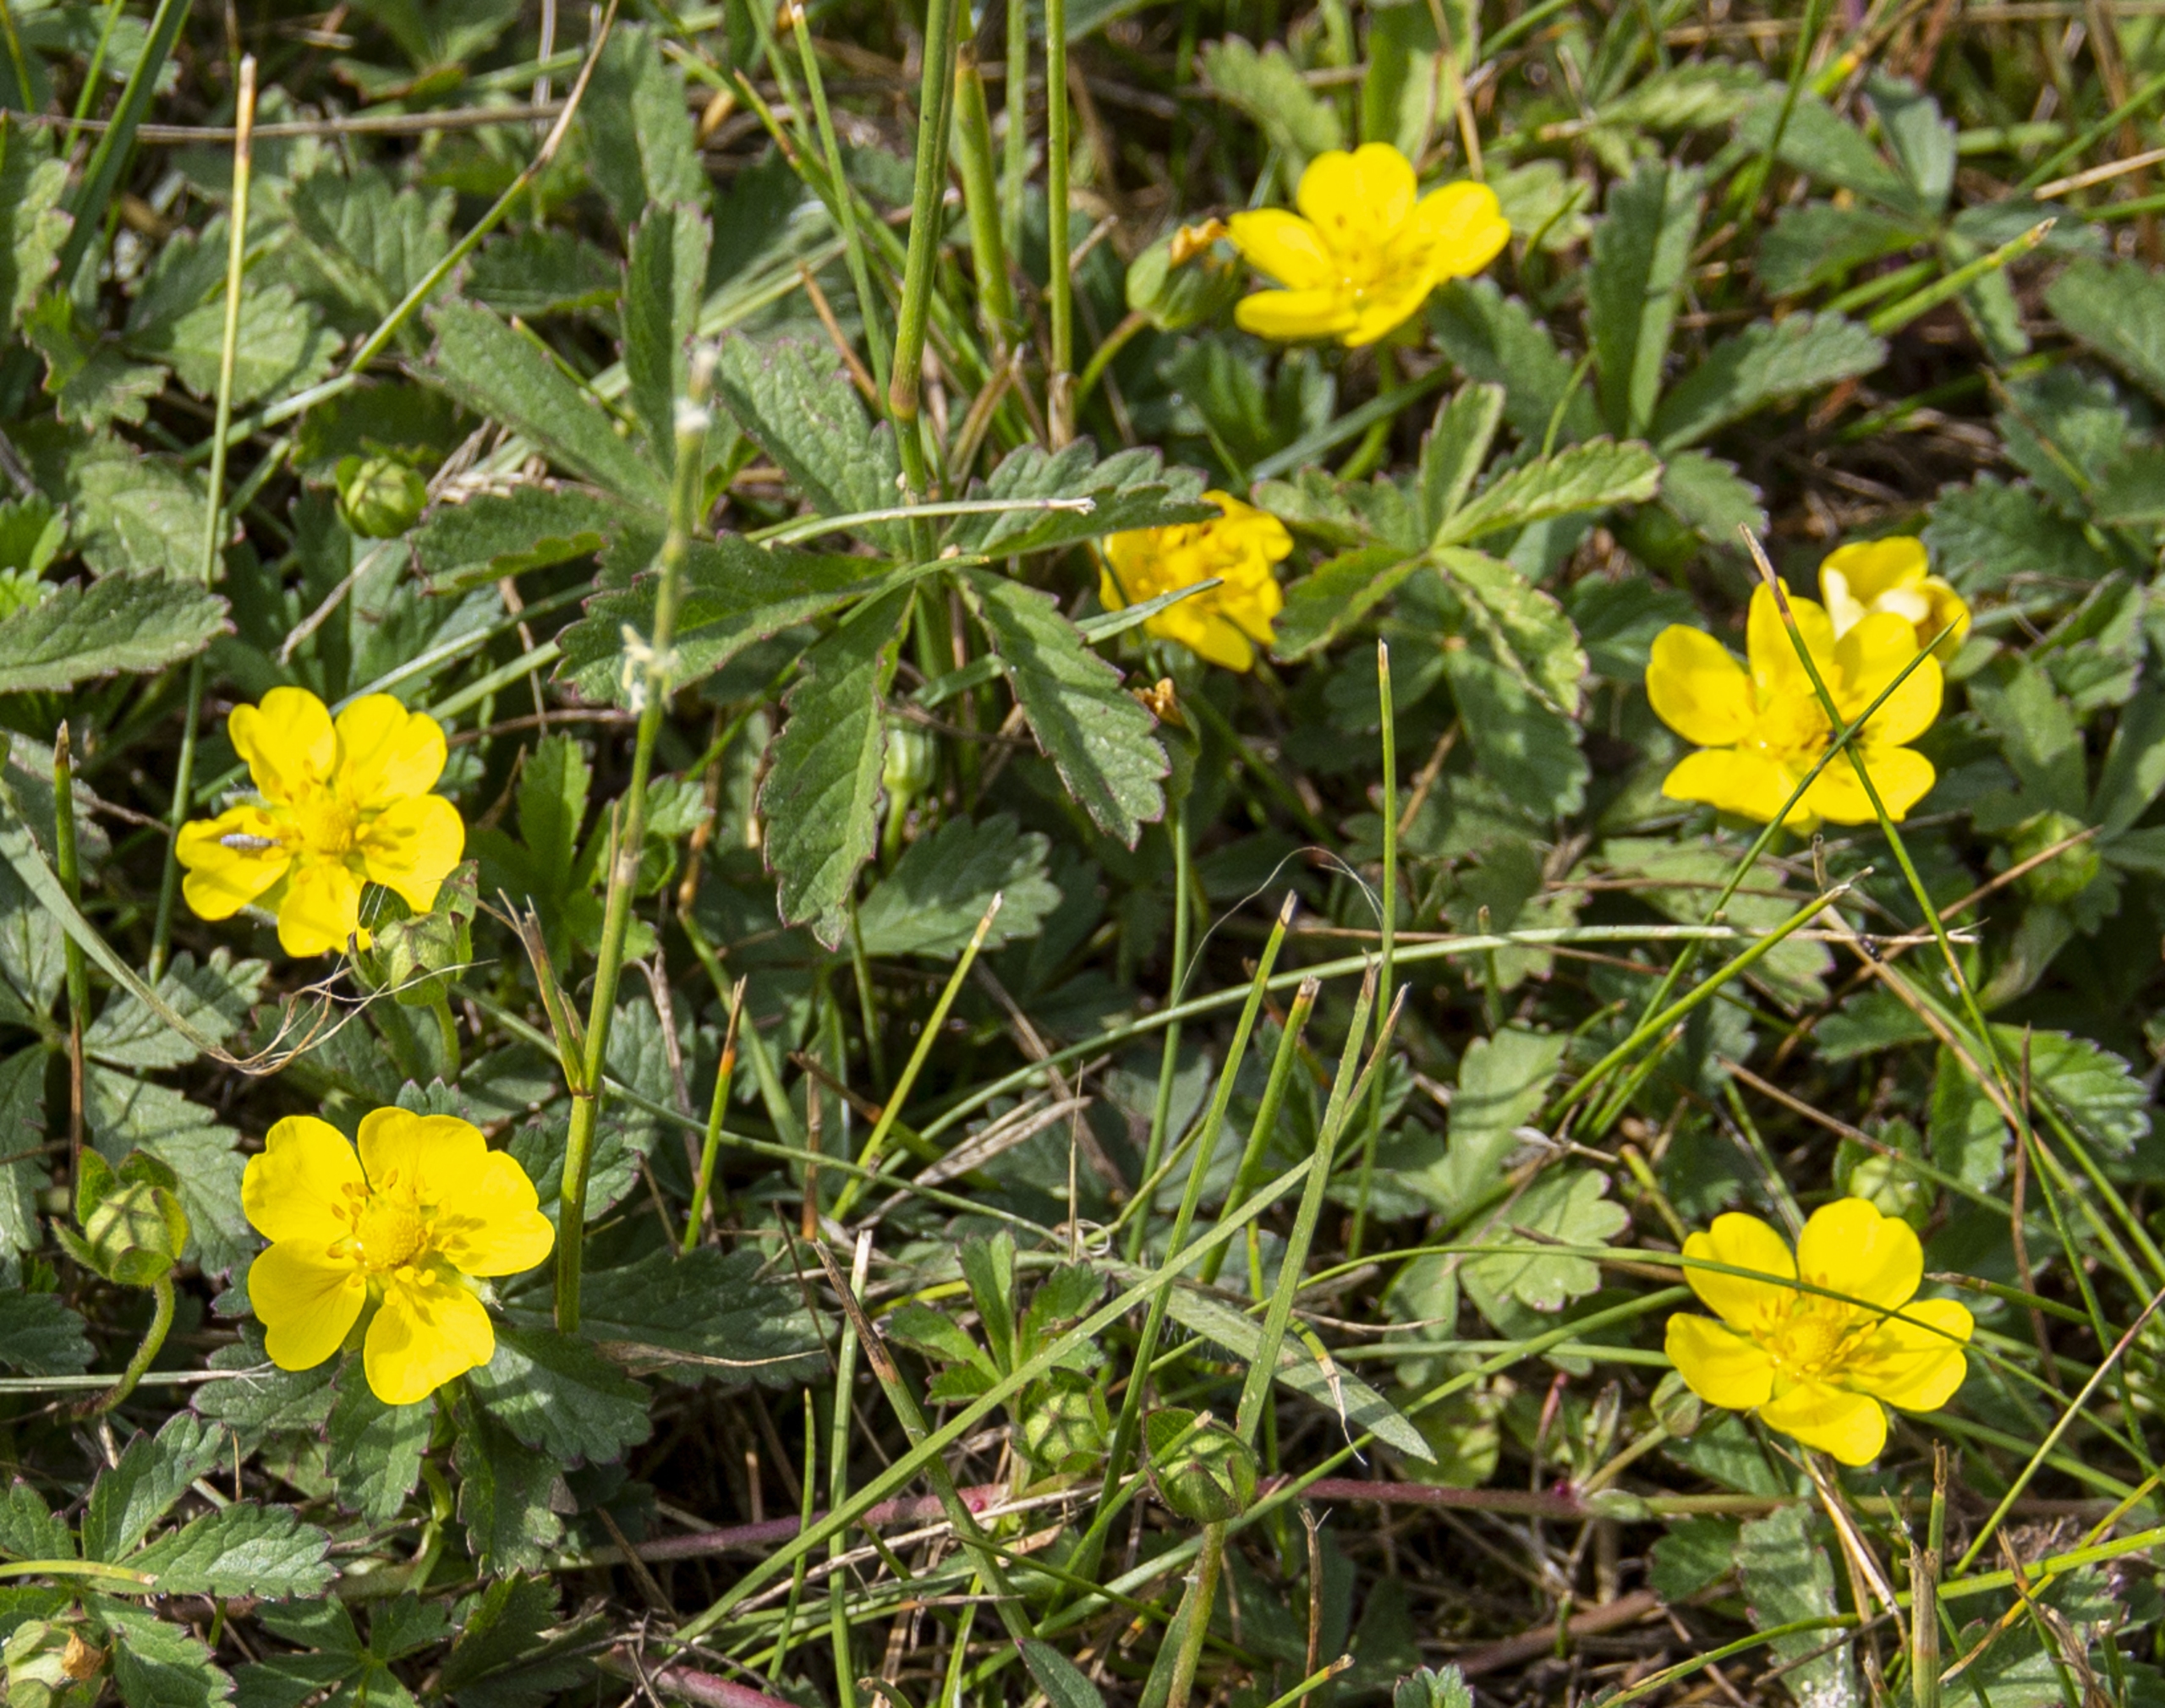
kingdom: Plantae
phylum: Tracheophyta
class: Magnoliopsida
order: Rosales
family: Rosaceae
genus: Potentilla
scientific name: Potentilla reptans
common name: Krybende potentil
